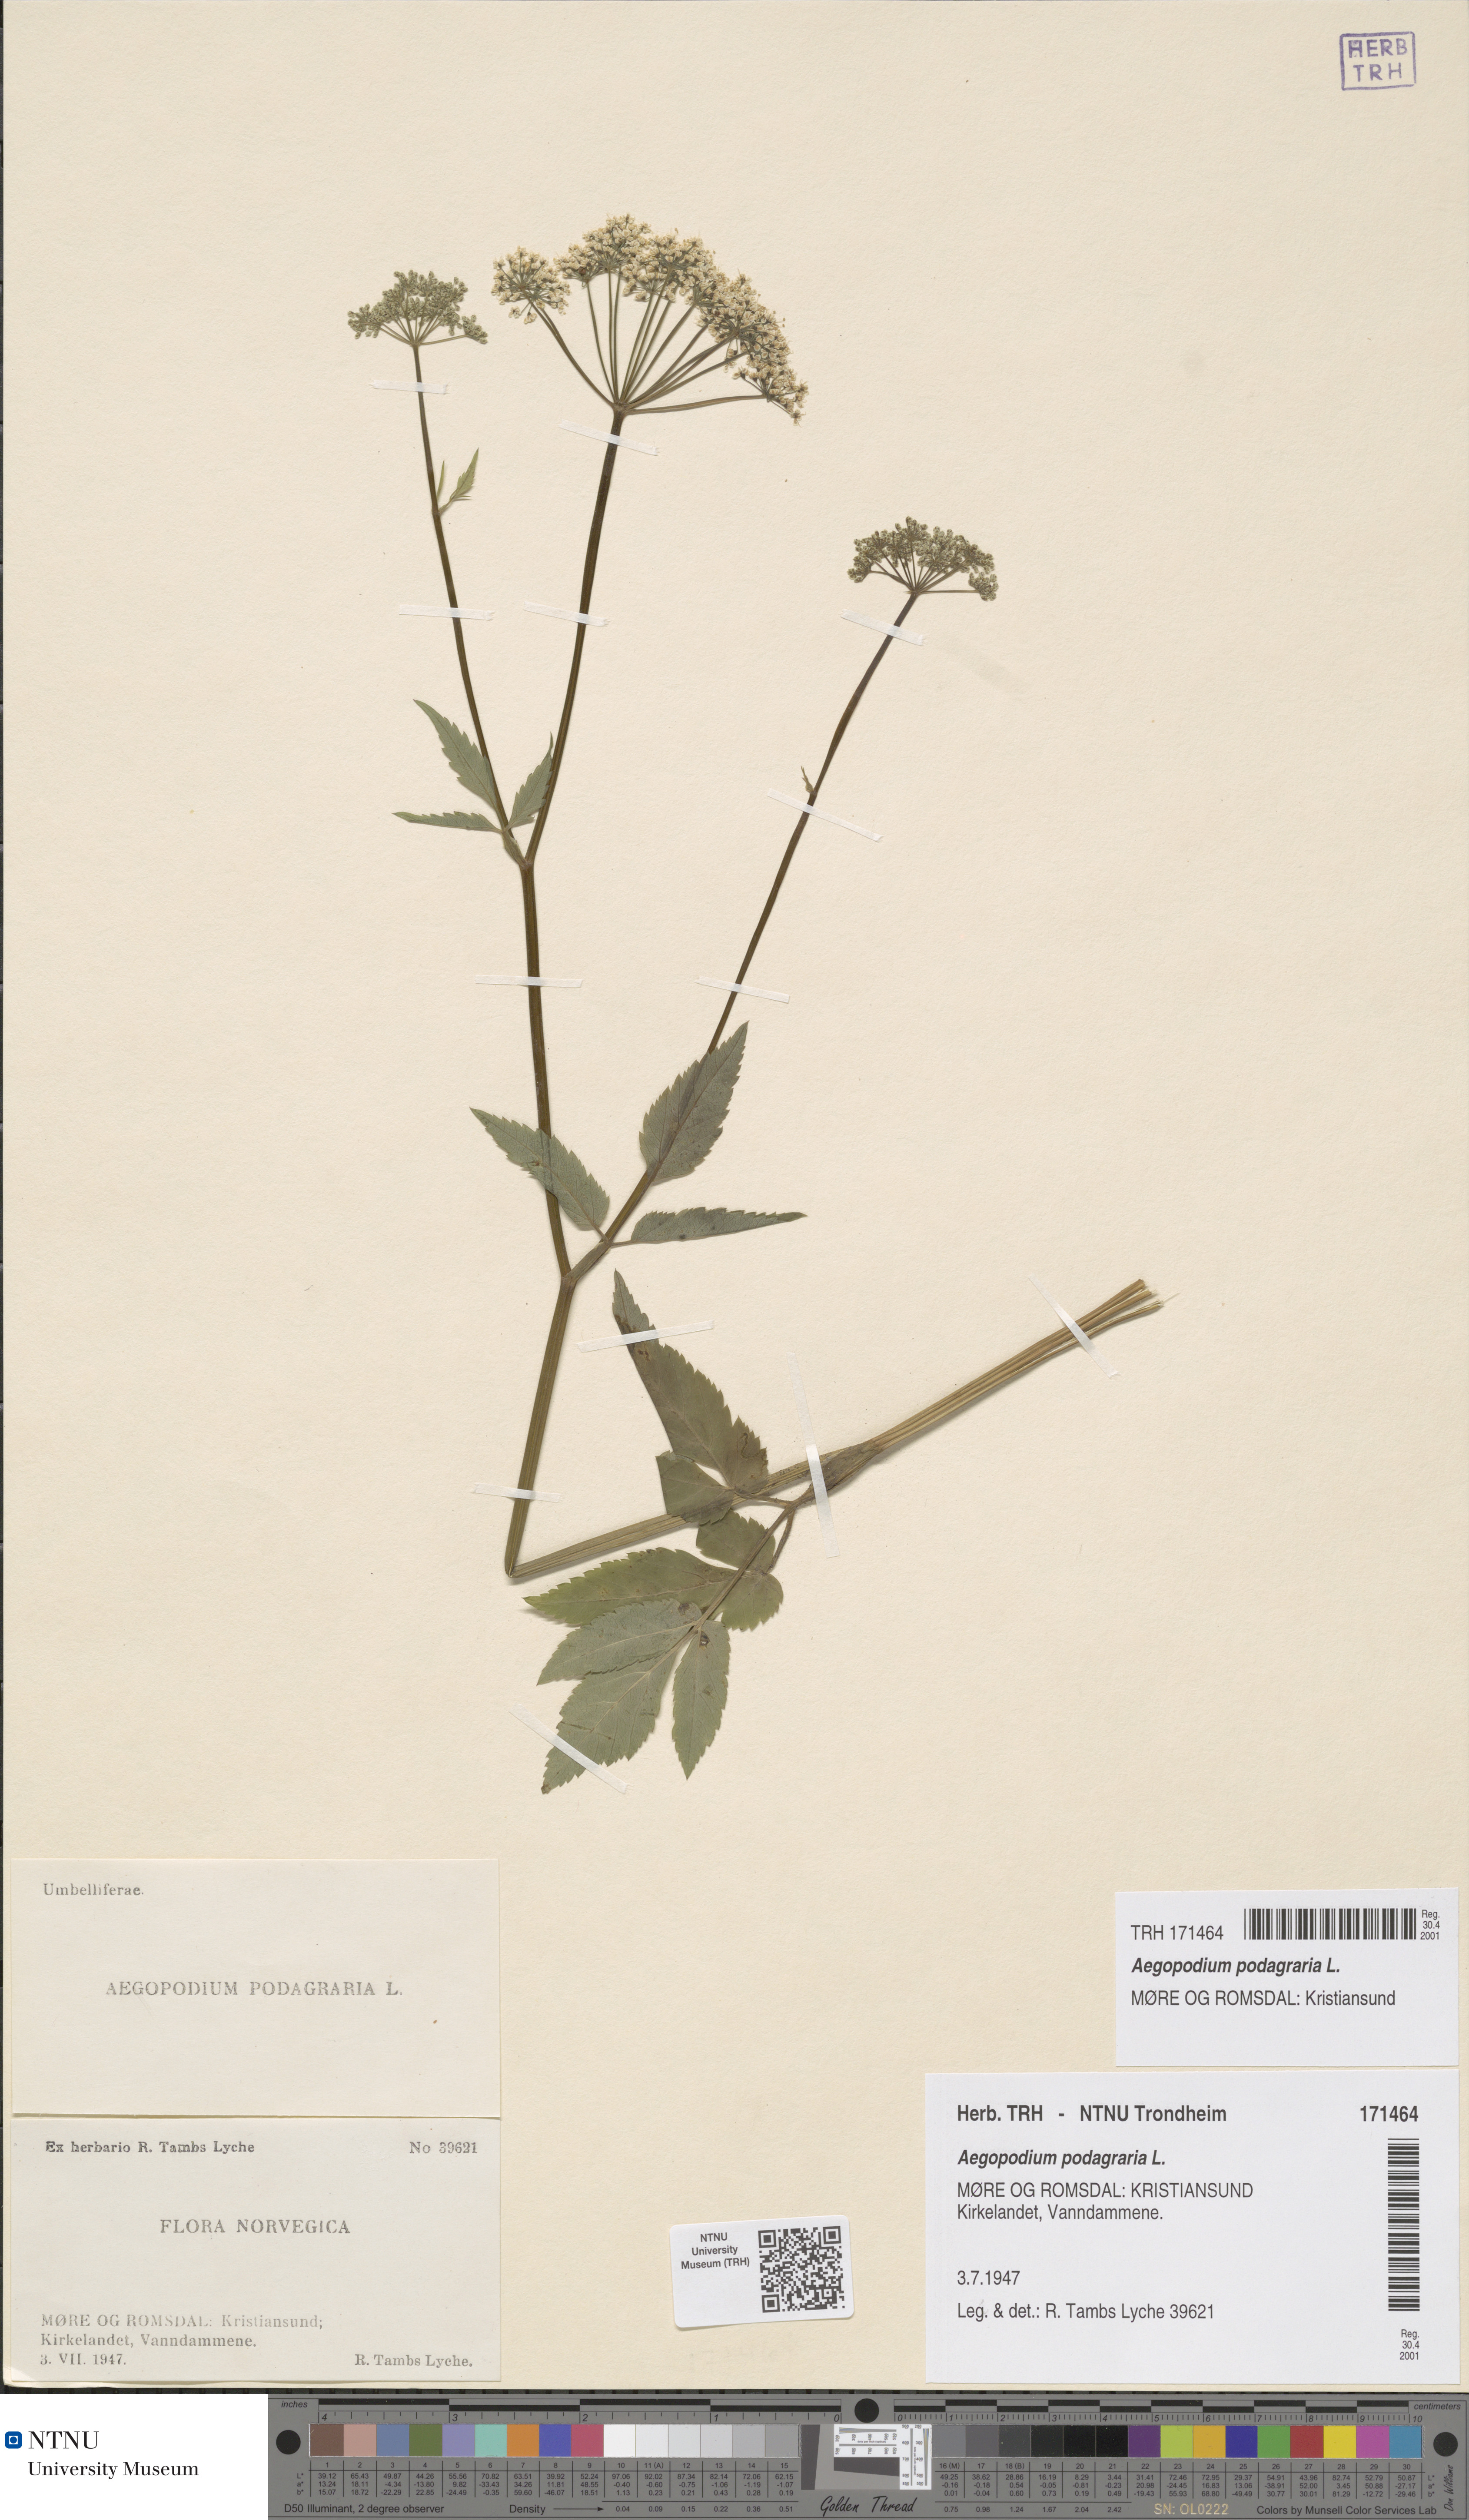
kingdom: Plantae
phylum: Tracheophyta
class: Magnoliopsida
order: Apiales
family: Apiaceae
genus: Aegopodium
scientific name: Aegopodium podagraria
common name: Ground-elder
